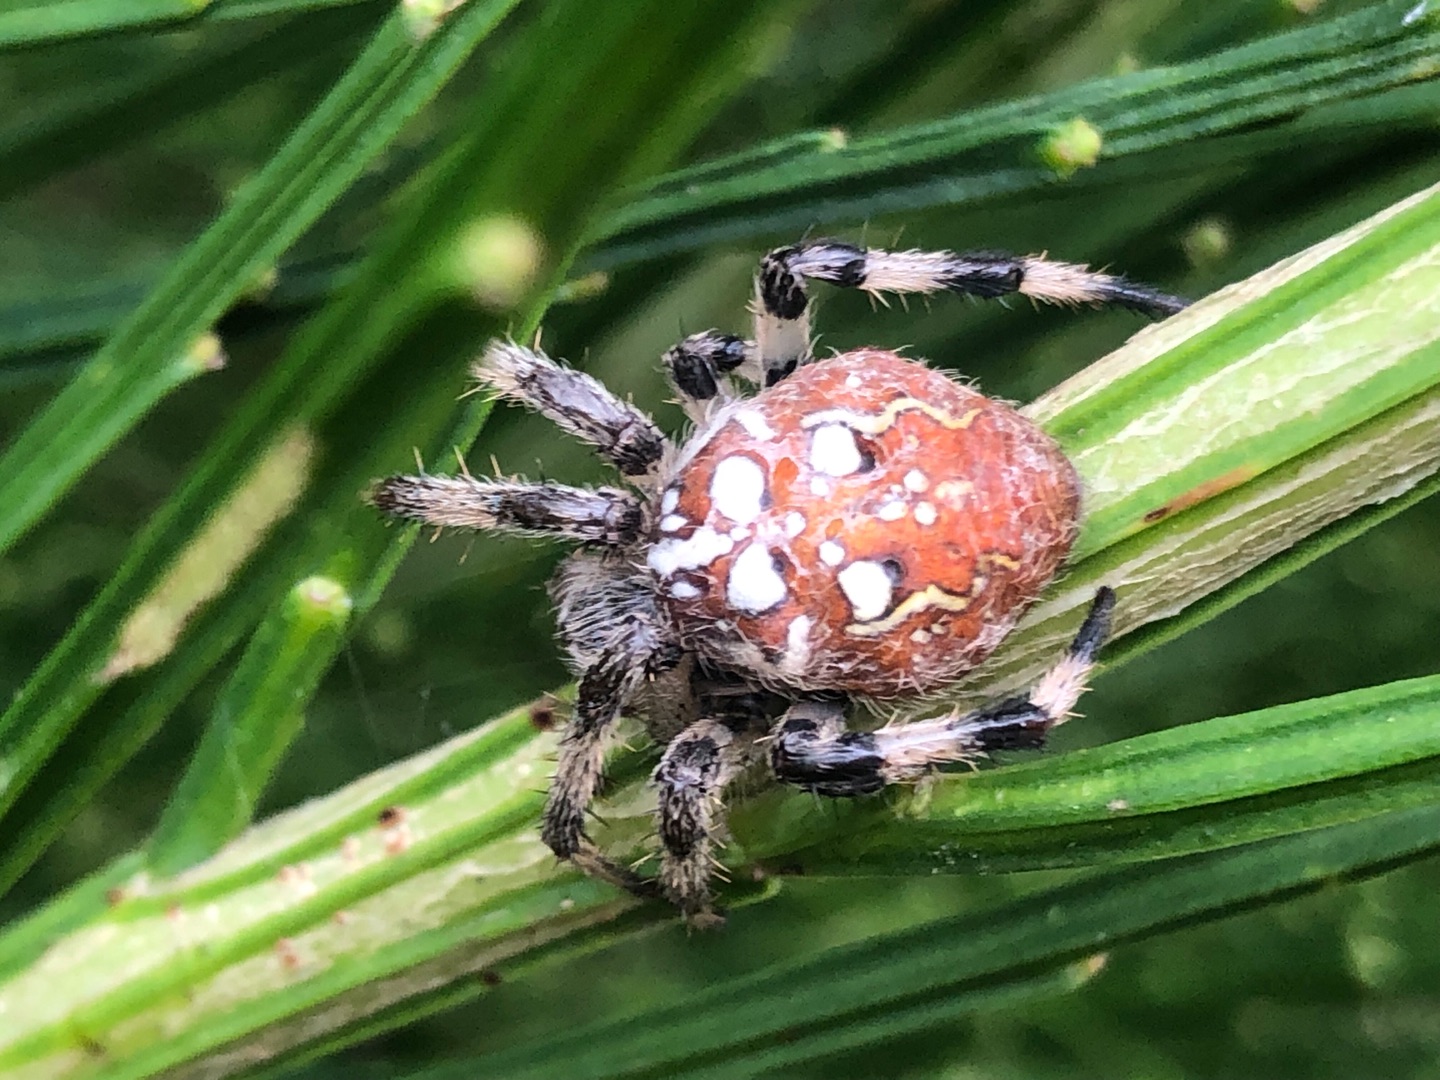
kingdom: Animalia
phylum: Arthropoda
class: Arachnida
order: Araneae
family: Araneidae
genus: Araneus
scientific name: Araneus quadratus
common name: Kvadratedderkop
